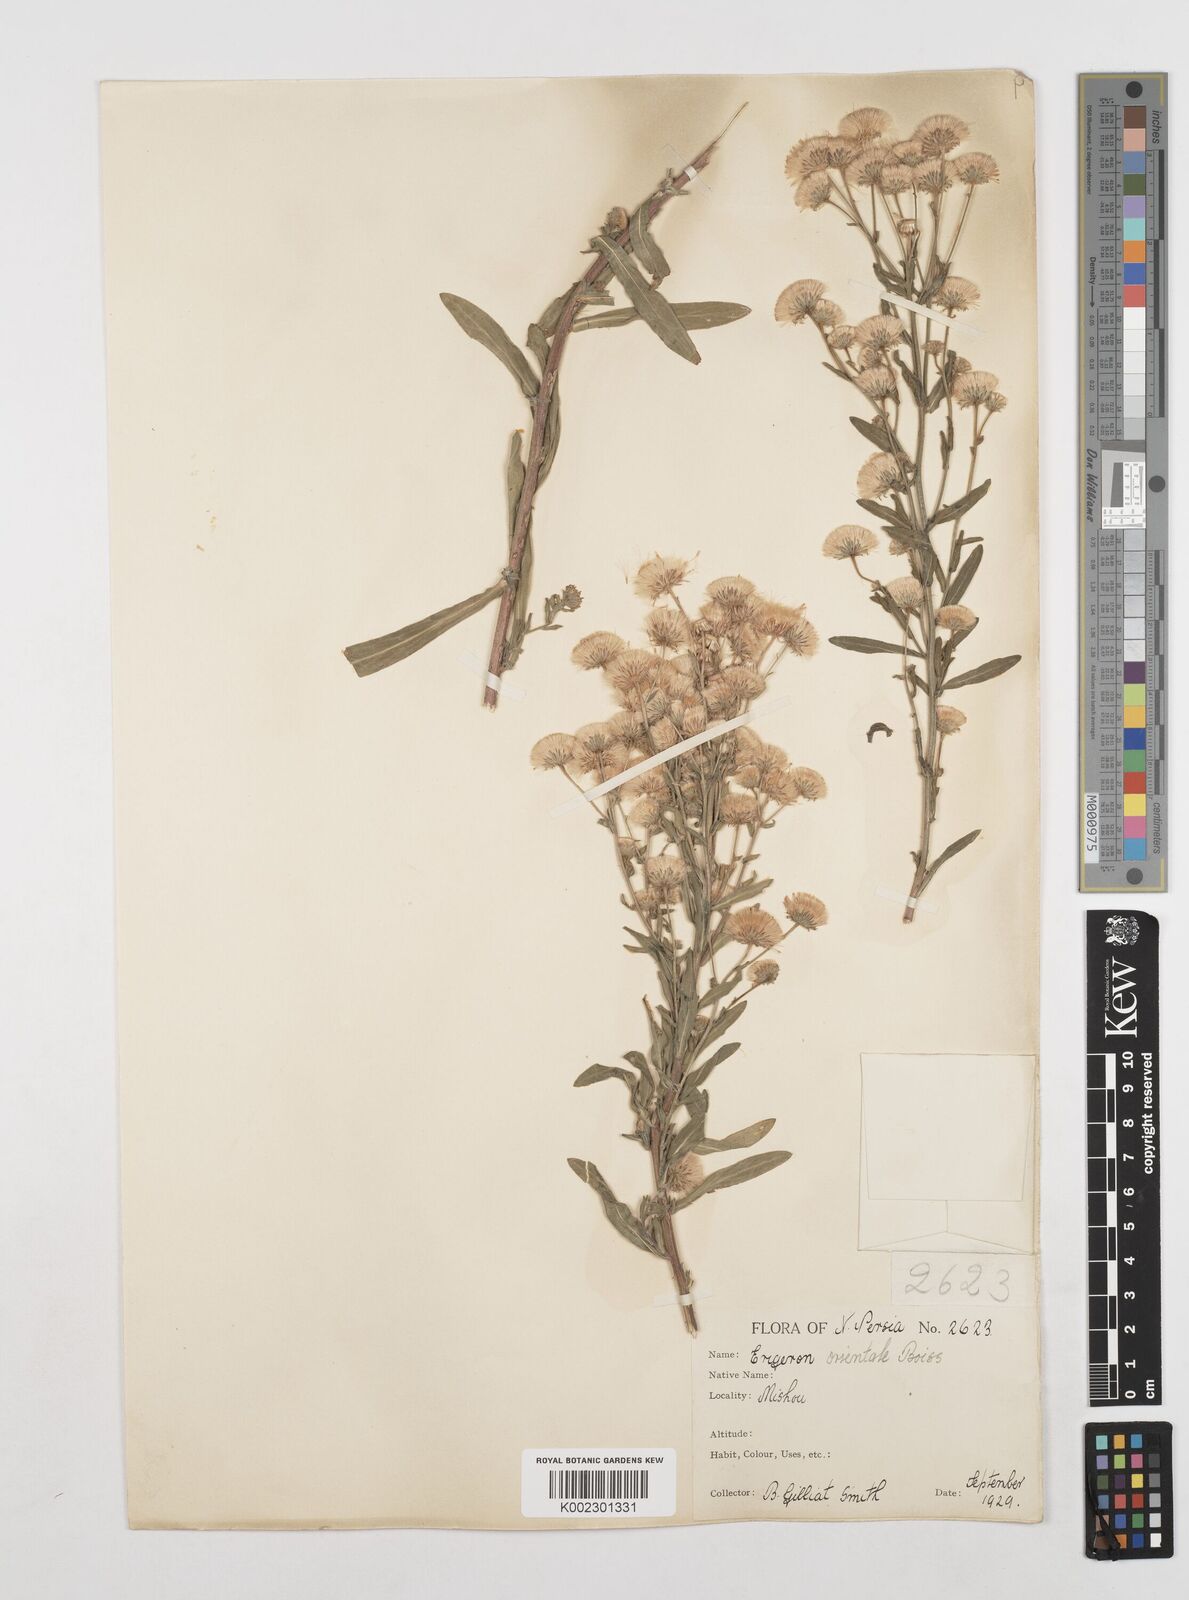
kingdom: Plantae
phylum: Tracheophyta
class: Magnoliopsida
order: Asterales
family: Asteraceae
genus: Erigeron
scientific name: Erigeron acris
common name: Blue fleabane
